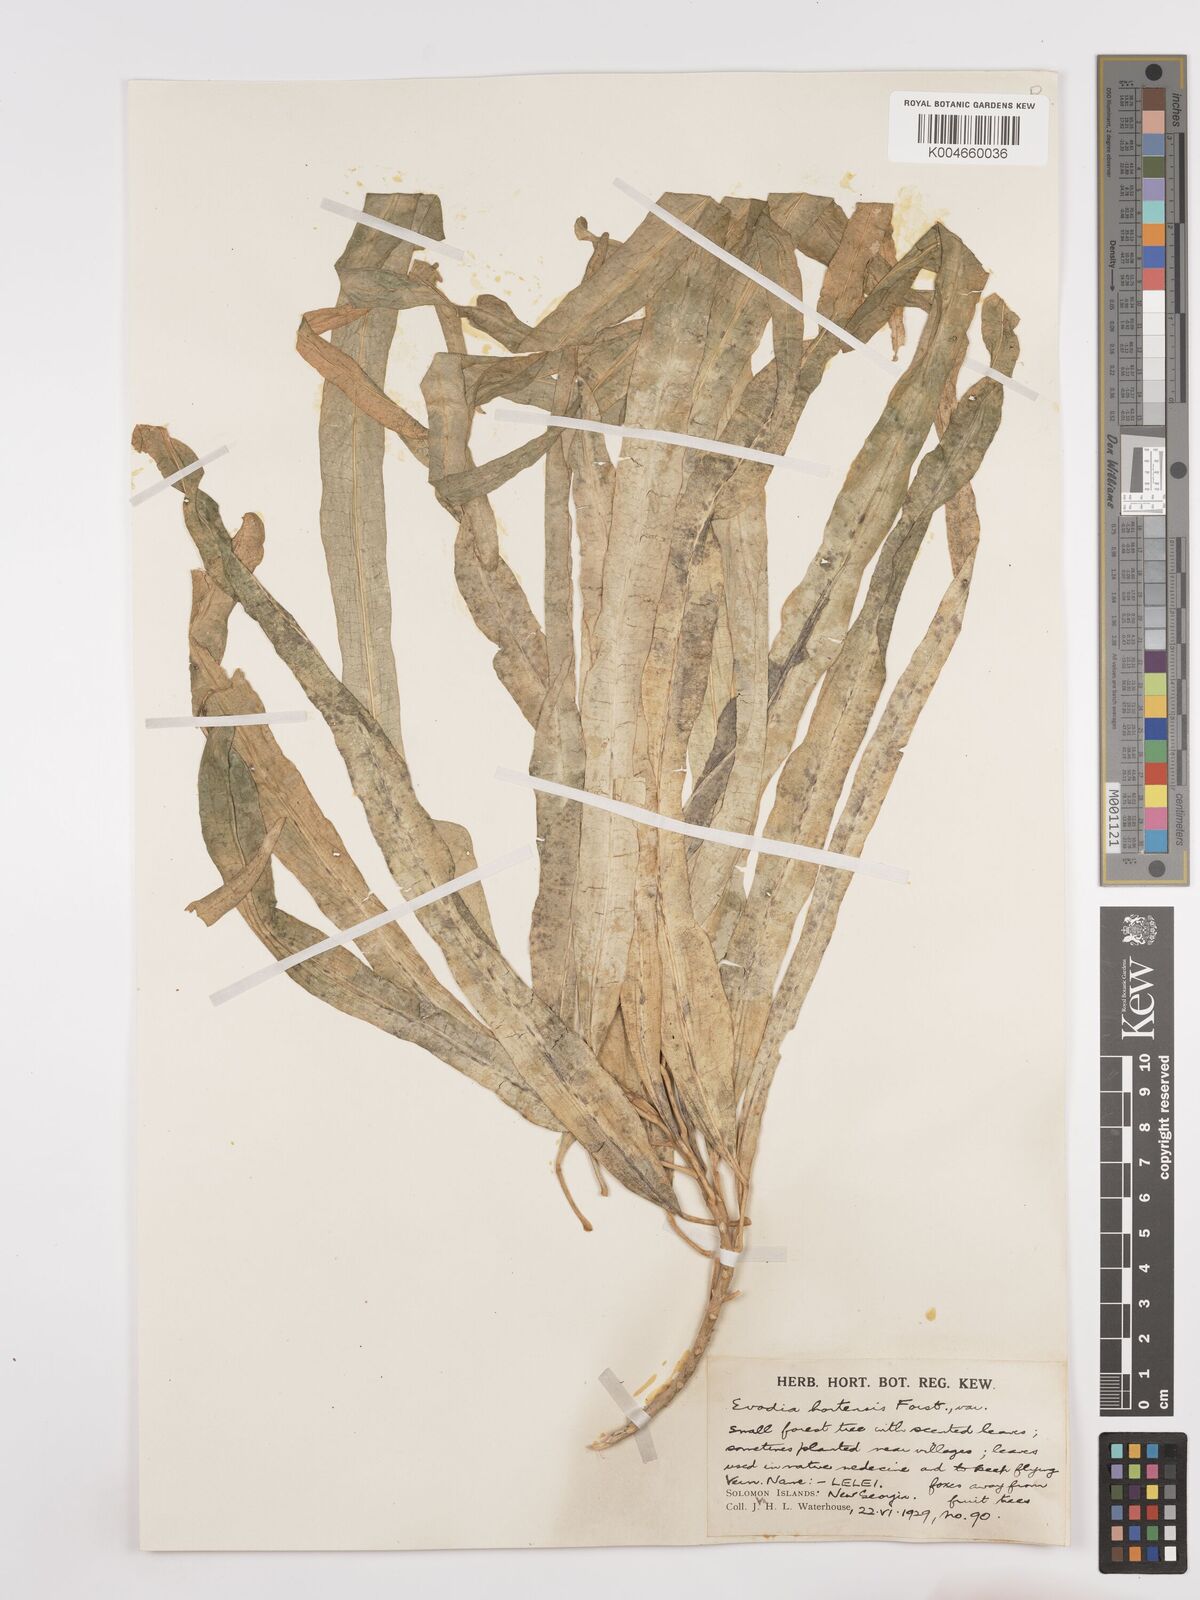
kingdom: Plantae
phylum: Tracheophyta
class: Magnoliopsida
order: Sapindales
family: Rutaceae
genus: Euodia
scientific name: Euodia hortensis
